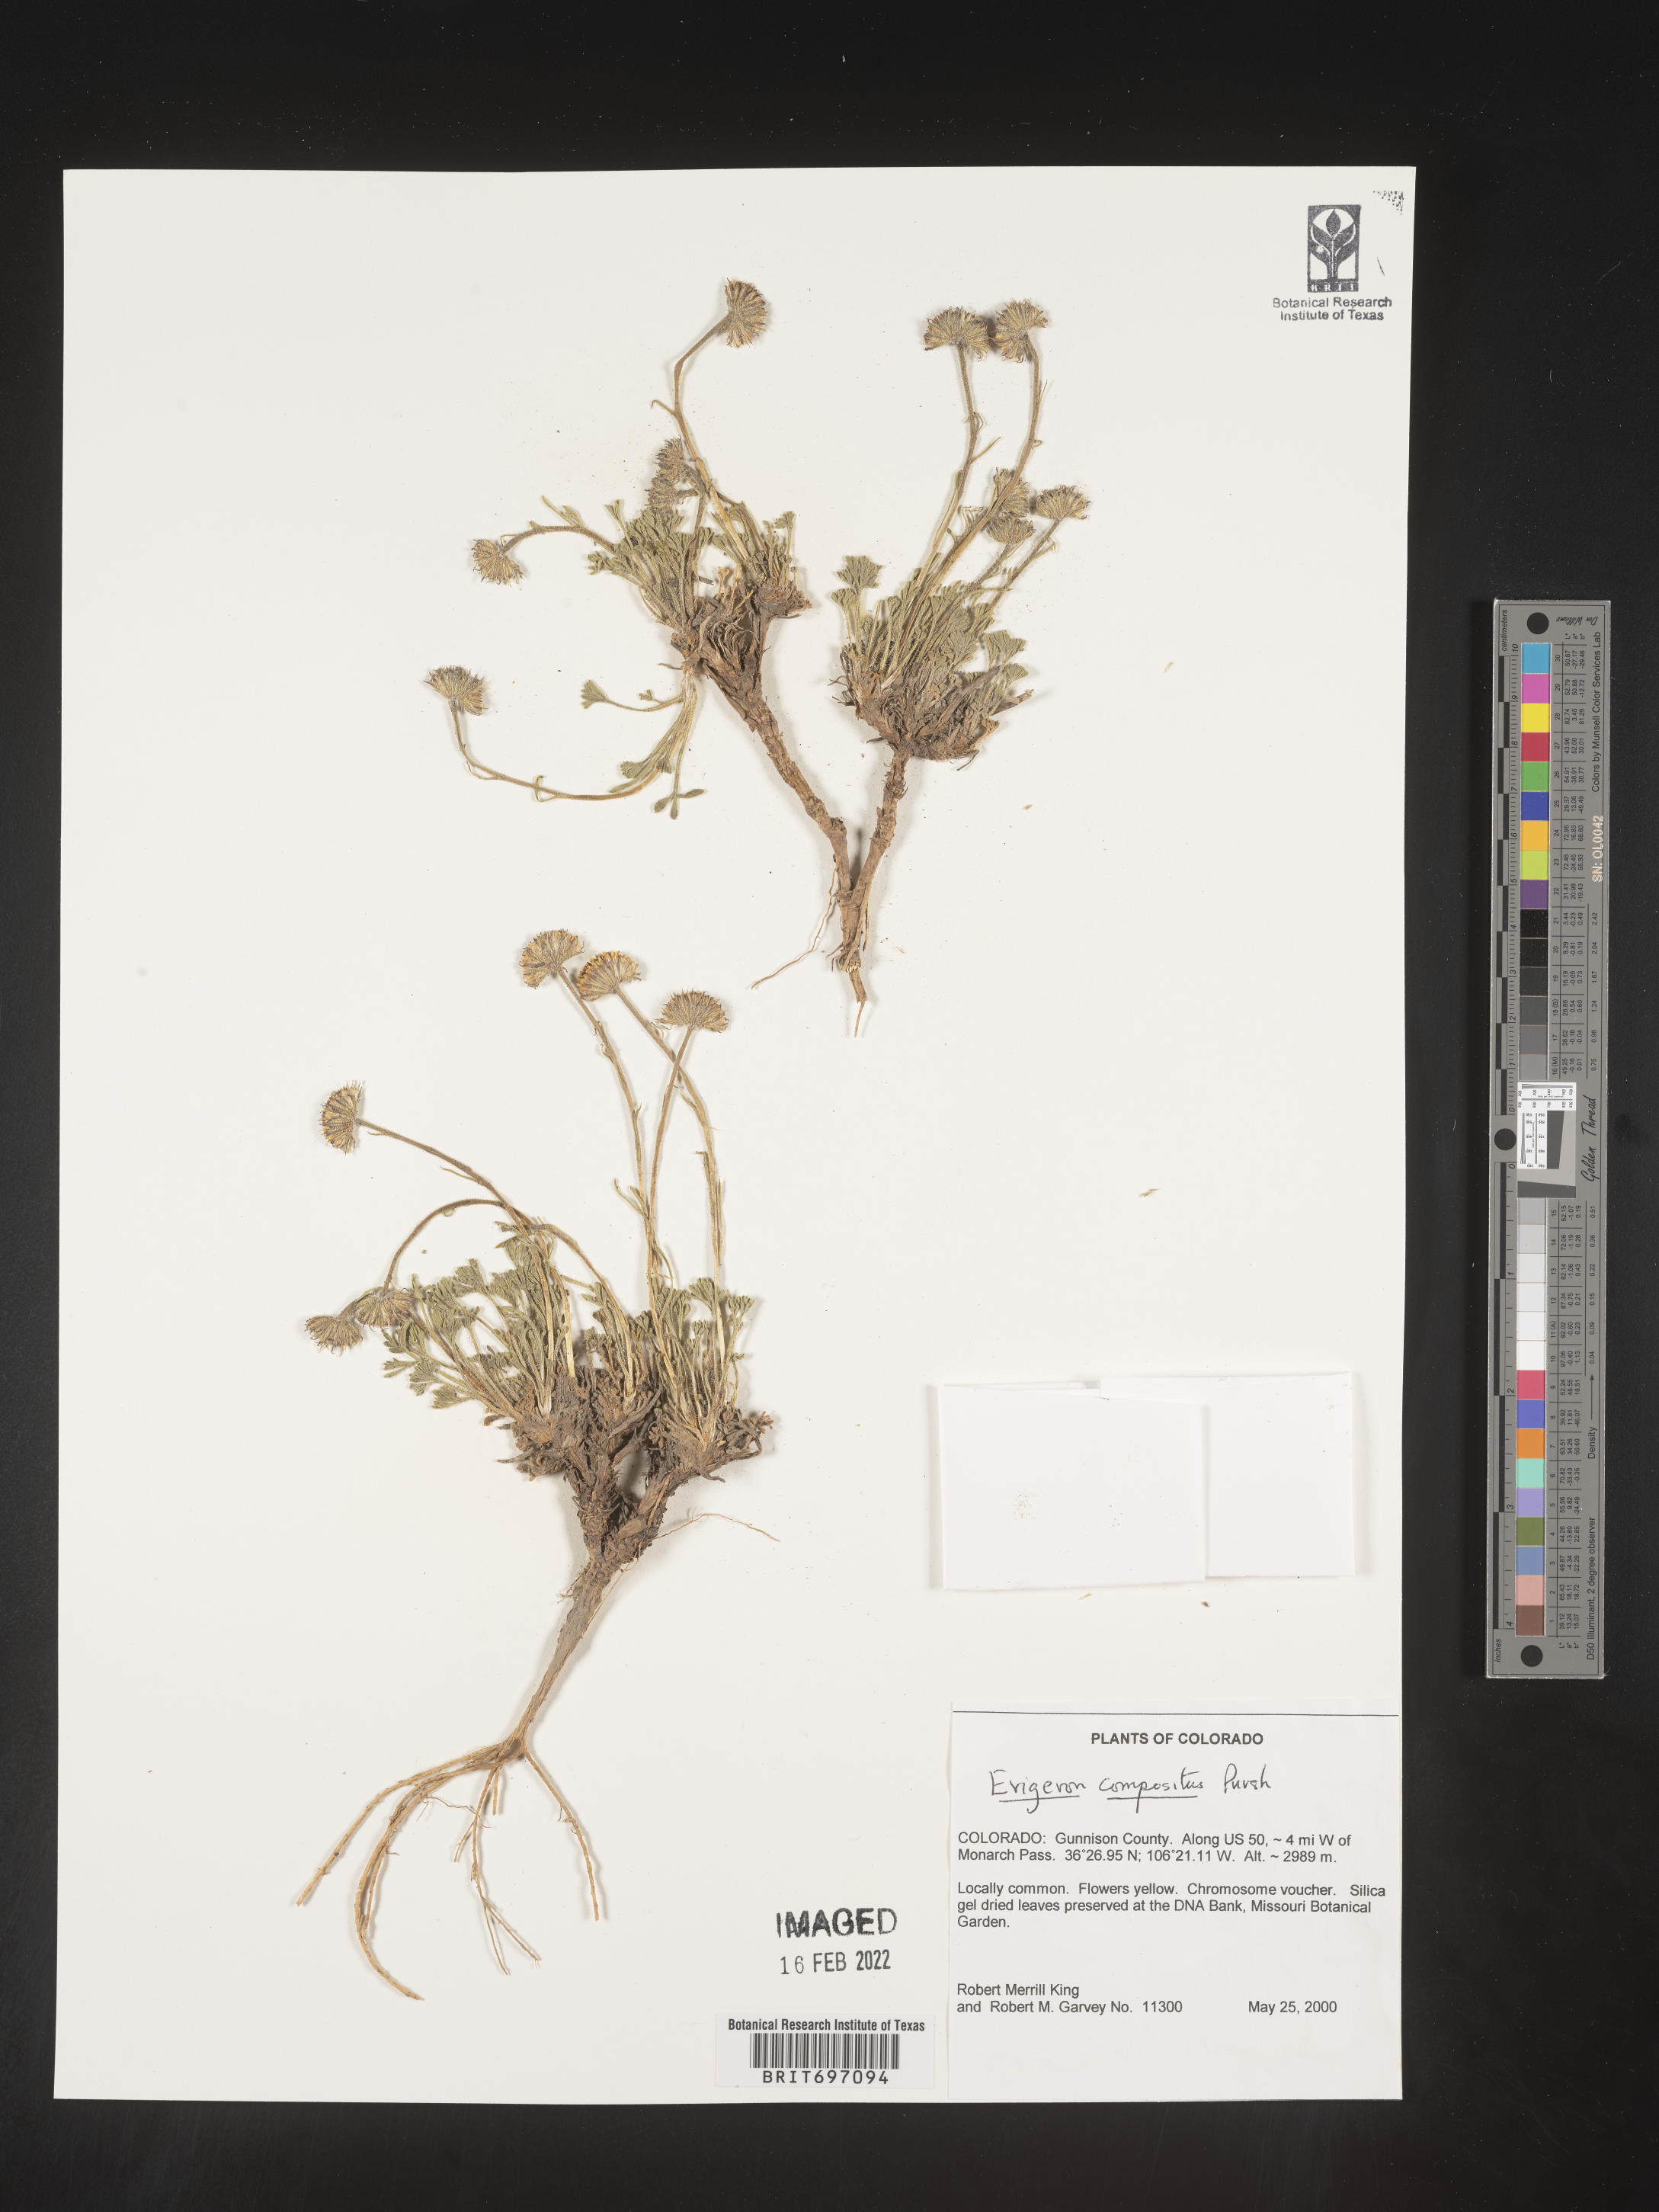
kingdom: Plantae
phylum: Tracheophyta
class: Magnoliopsida
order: Asterales
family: Asteraceae
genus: Erigeron
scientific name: Erigeron compositus
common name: Dwarf mountain fleabane
